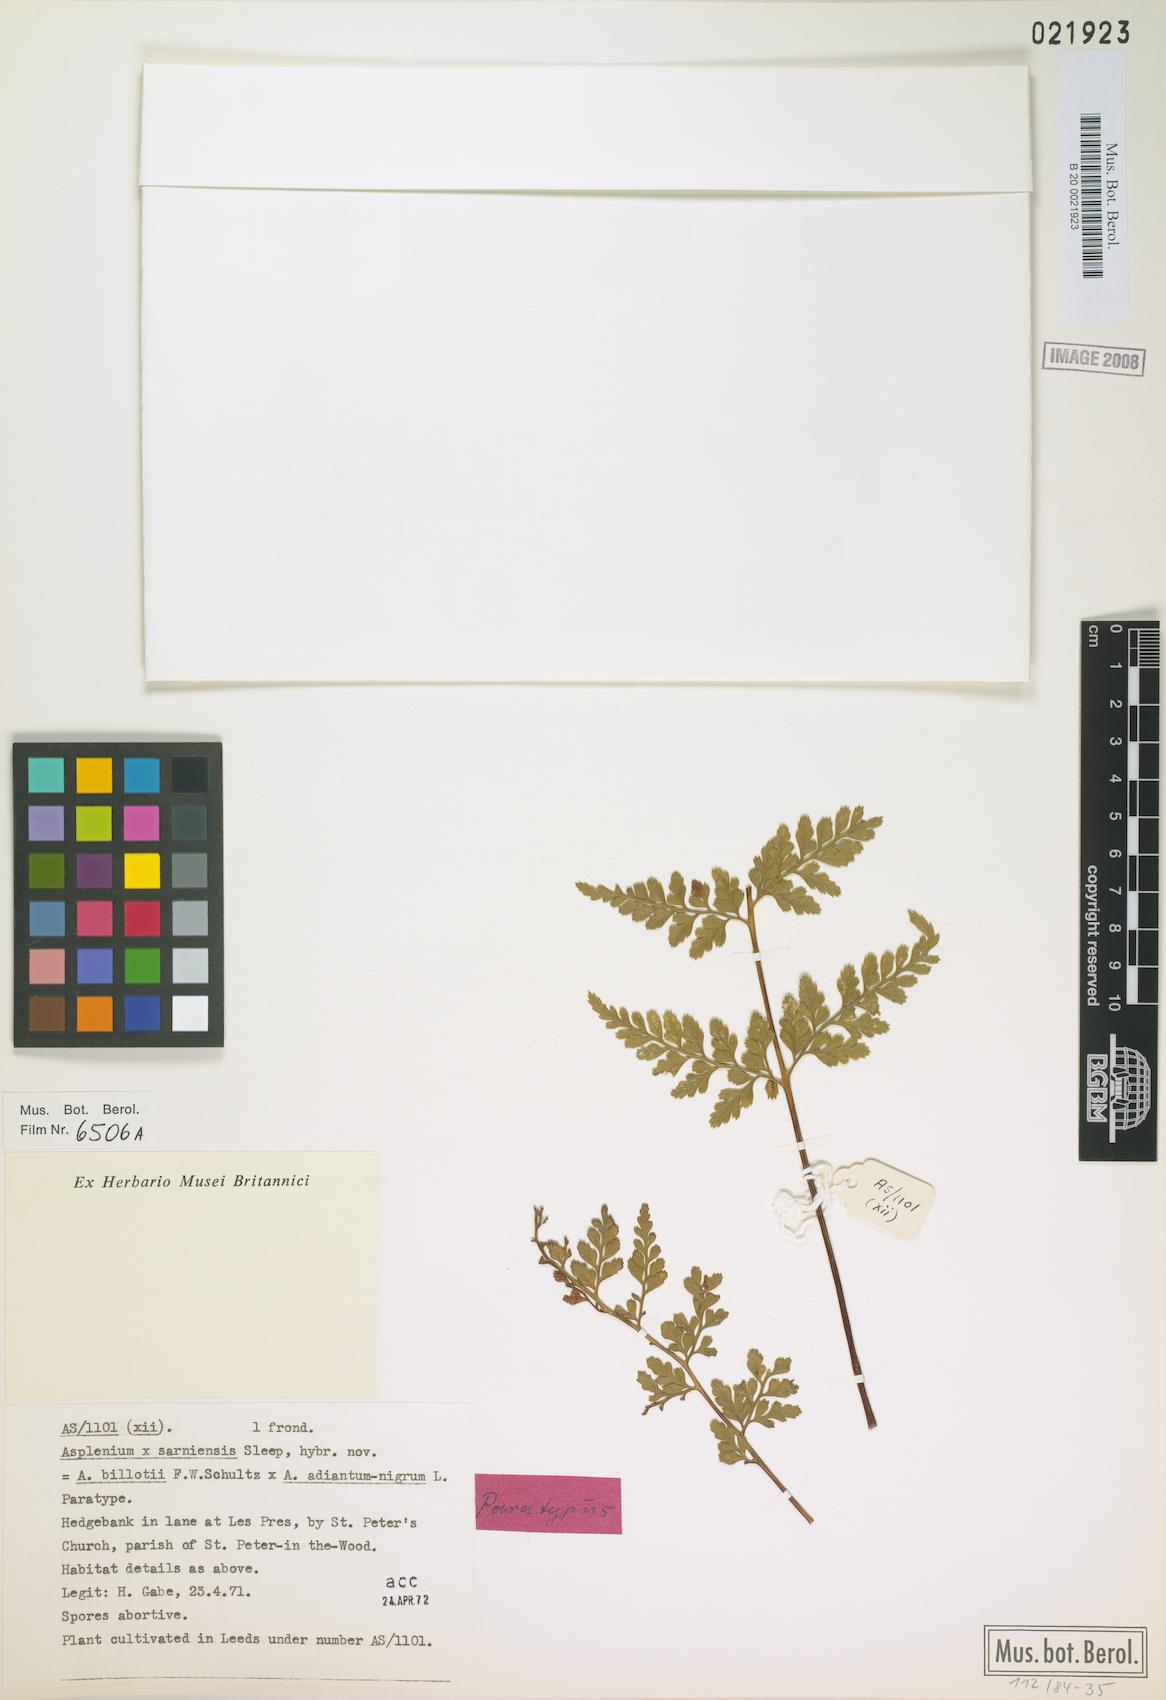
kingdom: Plantae
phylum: Tracheophyta
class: Polypodiopsida
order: Polypodiales
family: Aspleniaceae
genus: Asplenium
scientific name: Asplenium sarniense
